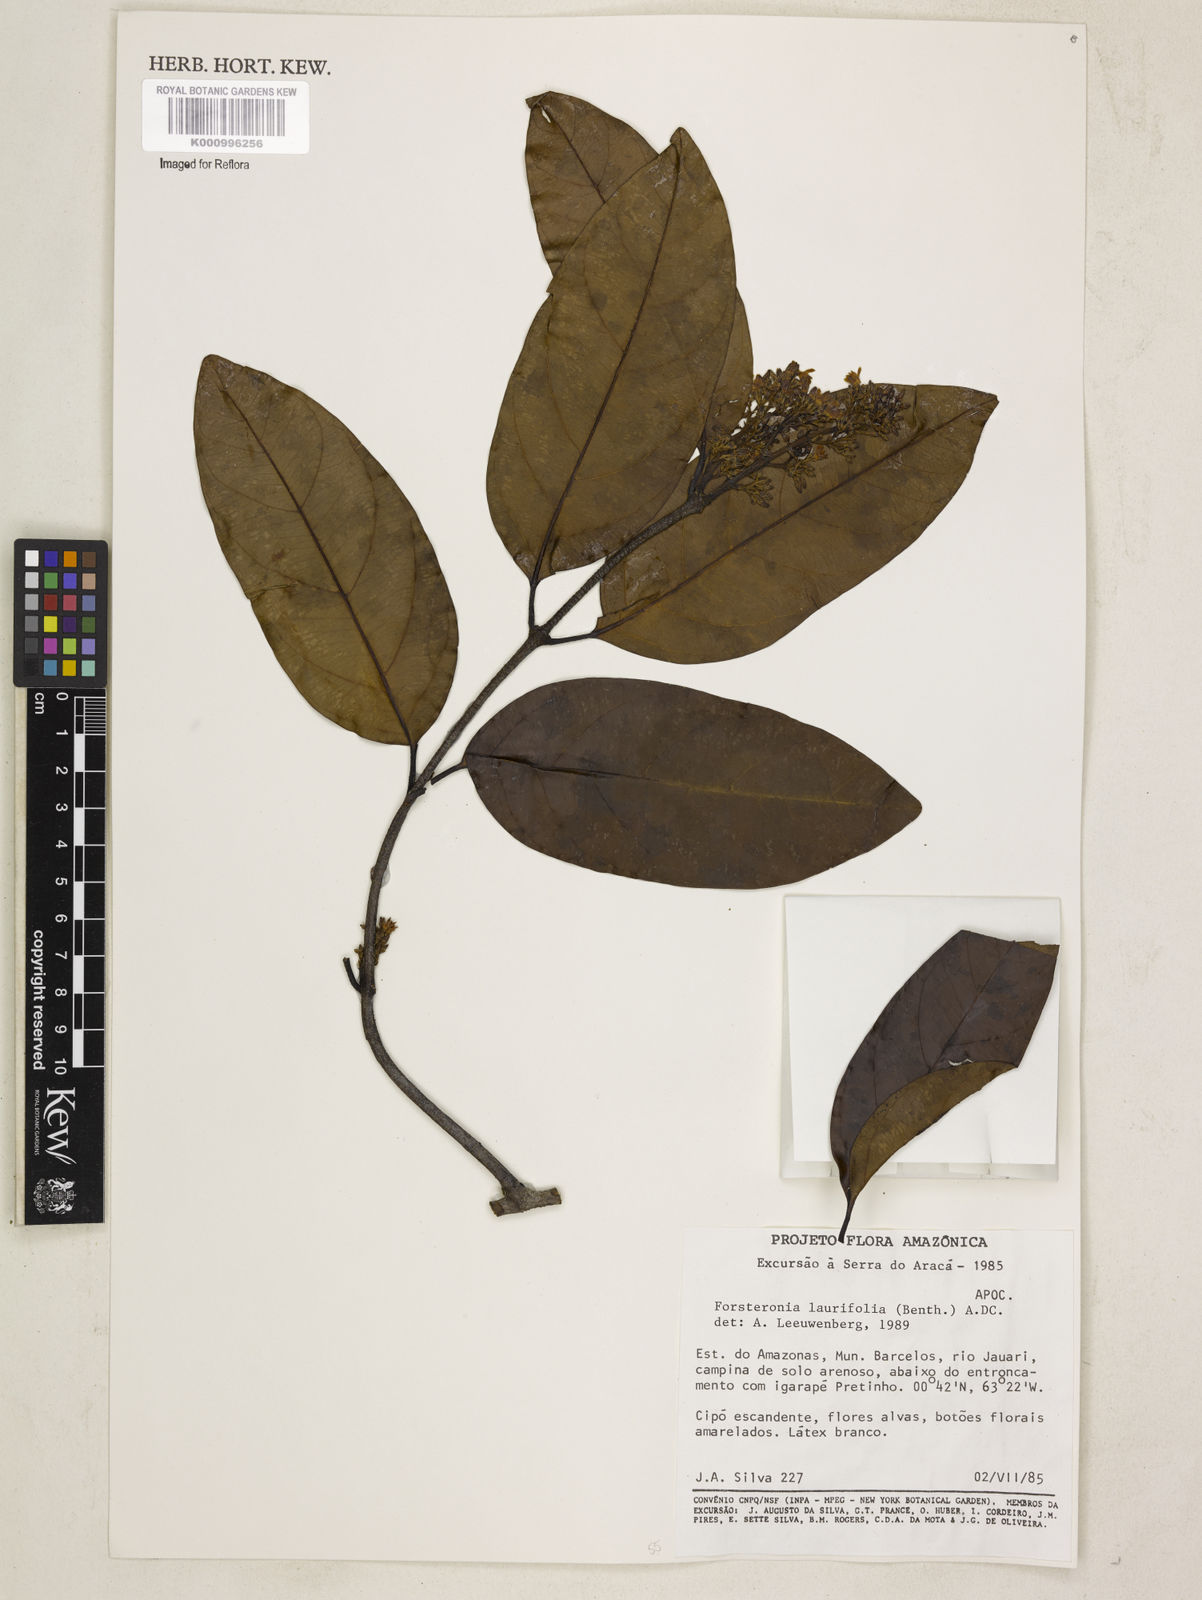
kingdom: Plantae
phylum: Tracheophyta
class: Magnoliopsida
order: Gentianales
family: Apocynaceae
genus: Forsteronia
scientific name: Forsteronia laurifolia
